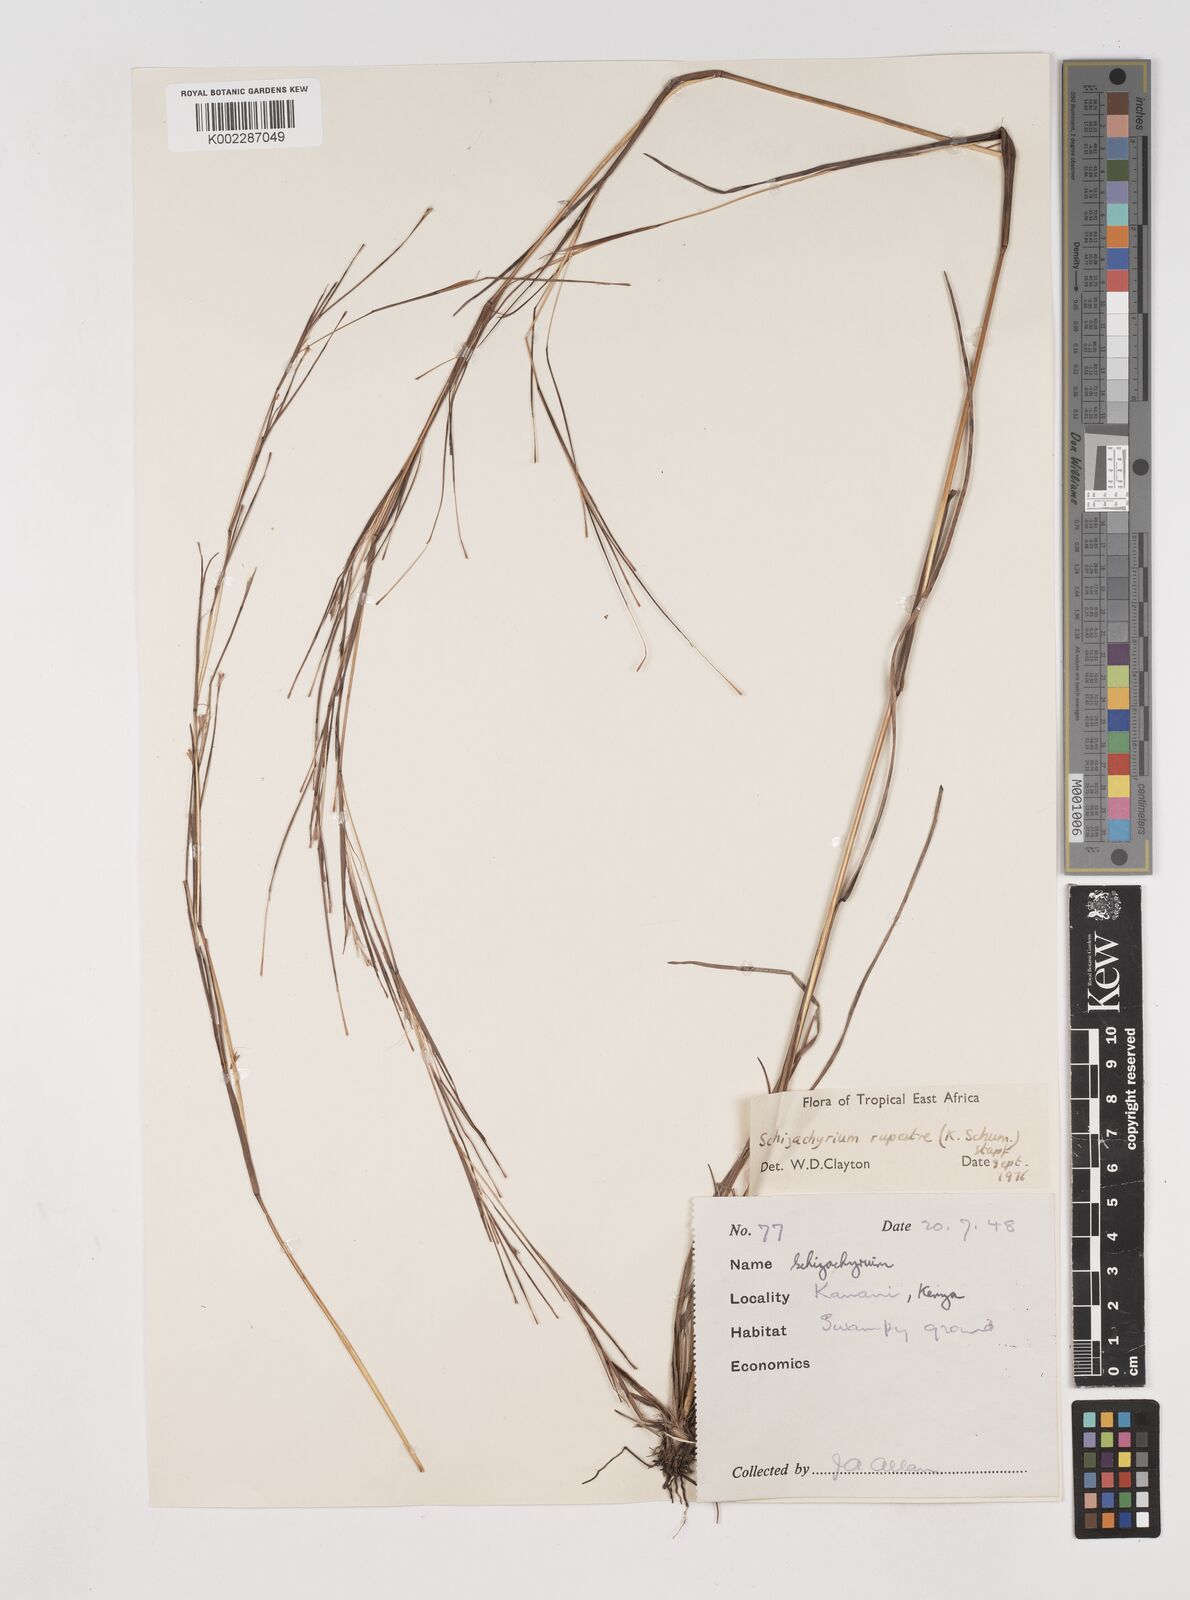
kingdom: Plantae
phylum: Tracheophyta
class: Liliopsida
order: Poales
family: Poaceae
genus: Andropogon
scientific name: Andropogon rupestris
